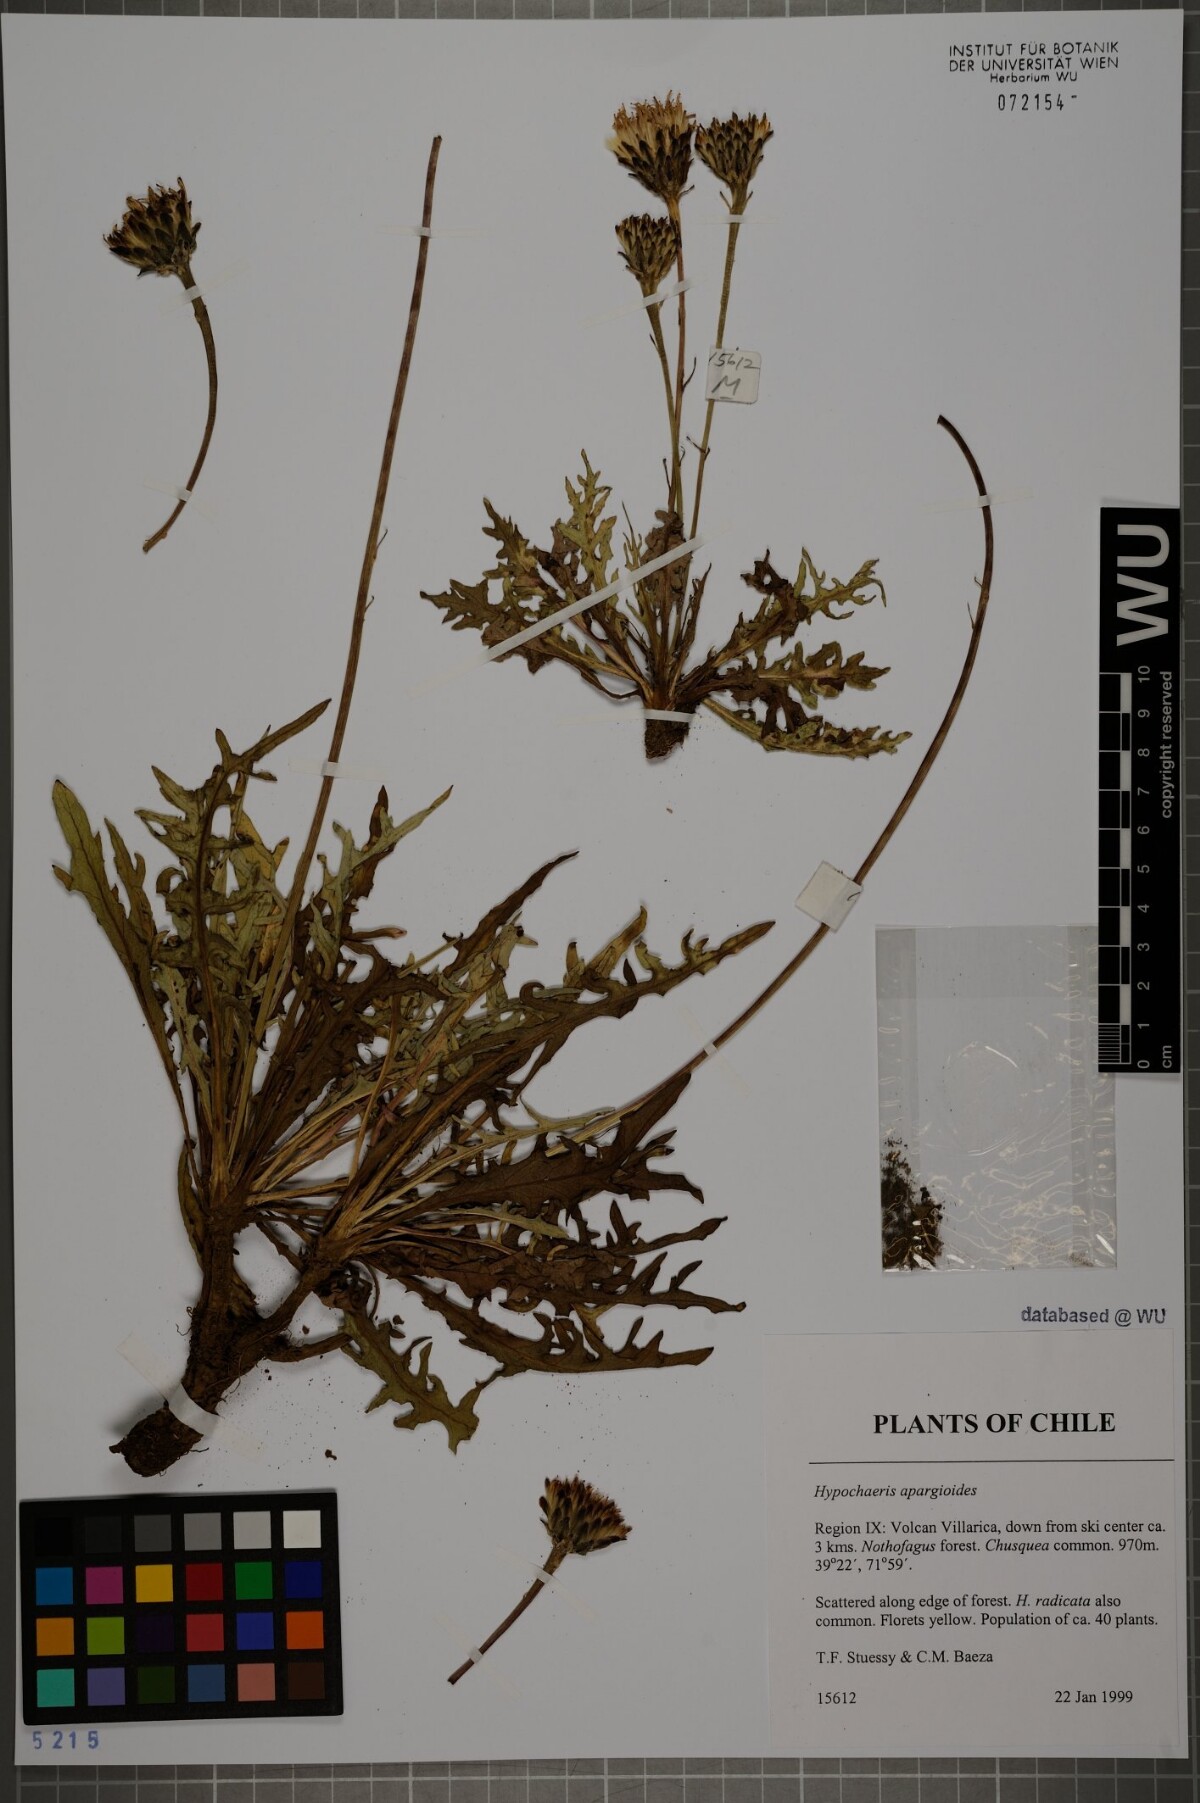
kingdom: Plantae
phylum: Tracheophyta
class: Magnoliopsida
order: Asterales
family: Asteraceae
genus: Hypochaeris
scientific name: Hypochaeris apargioides
